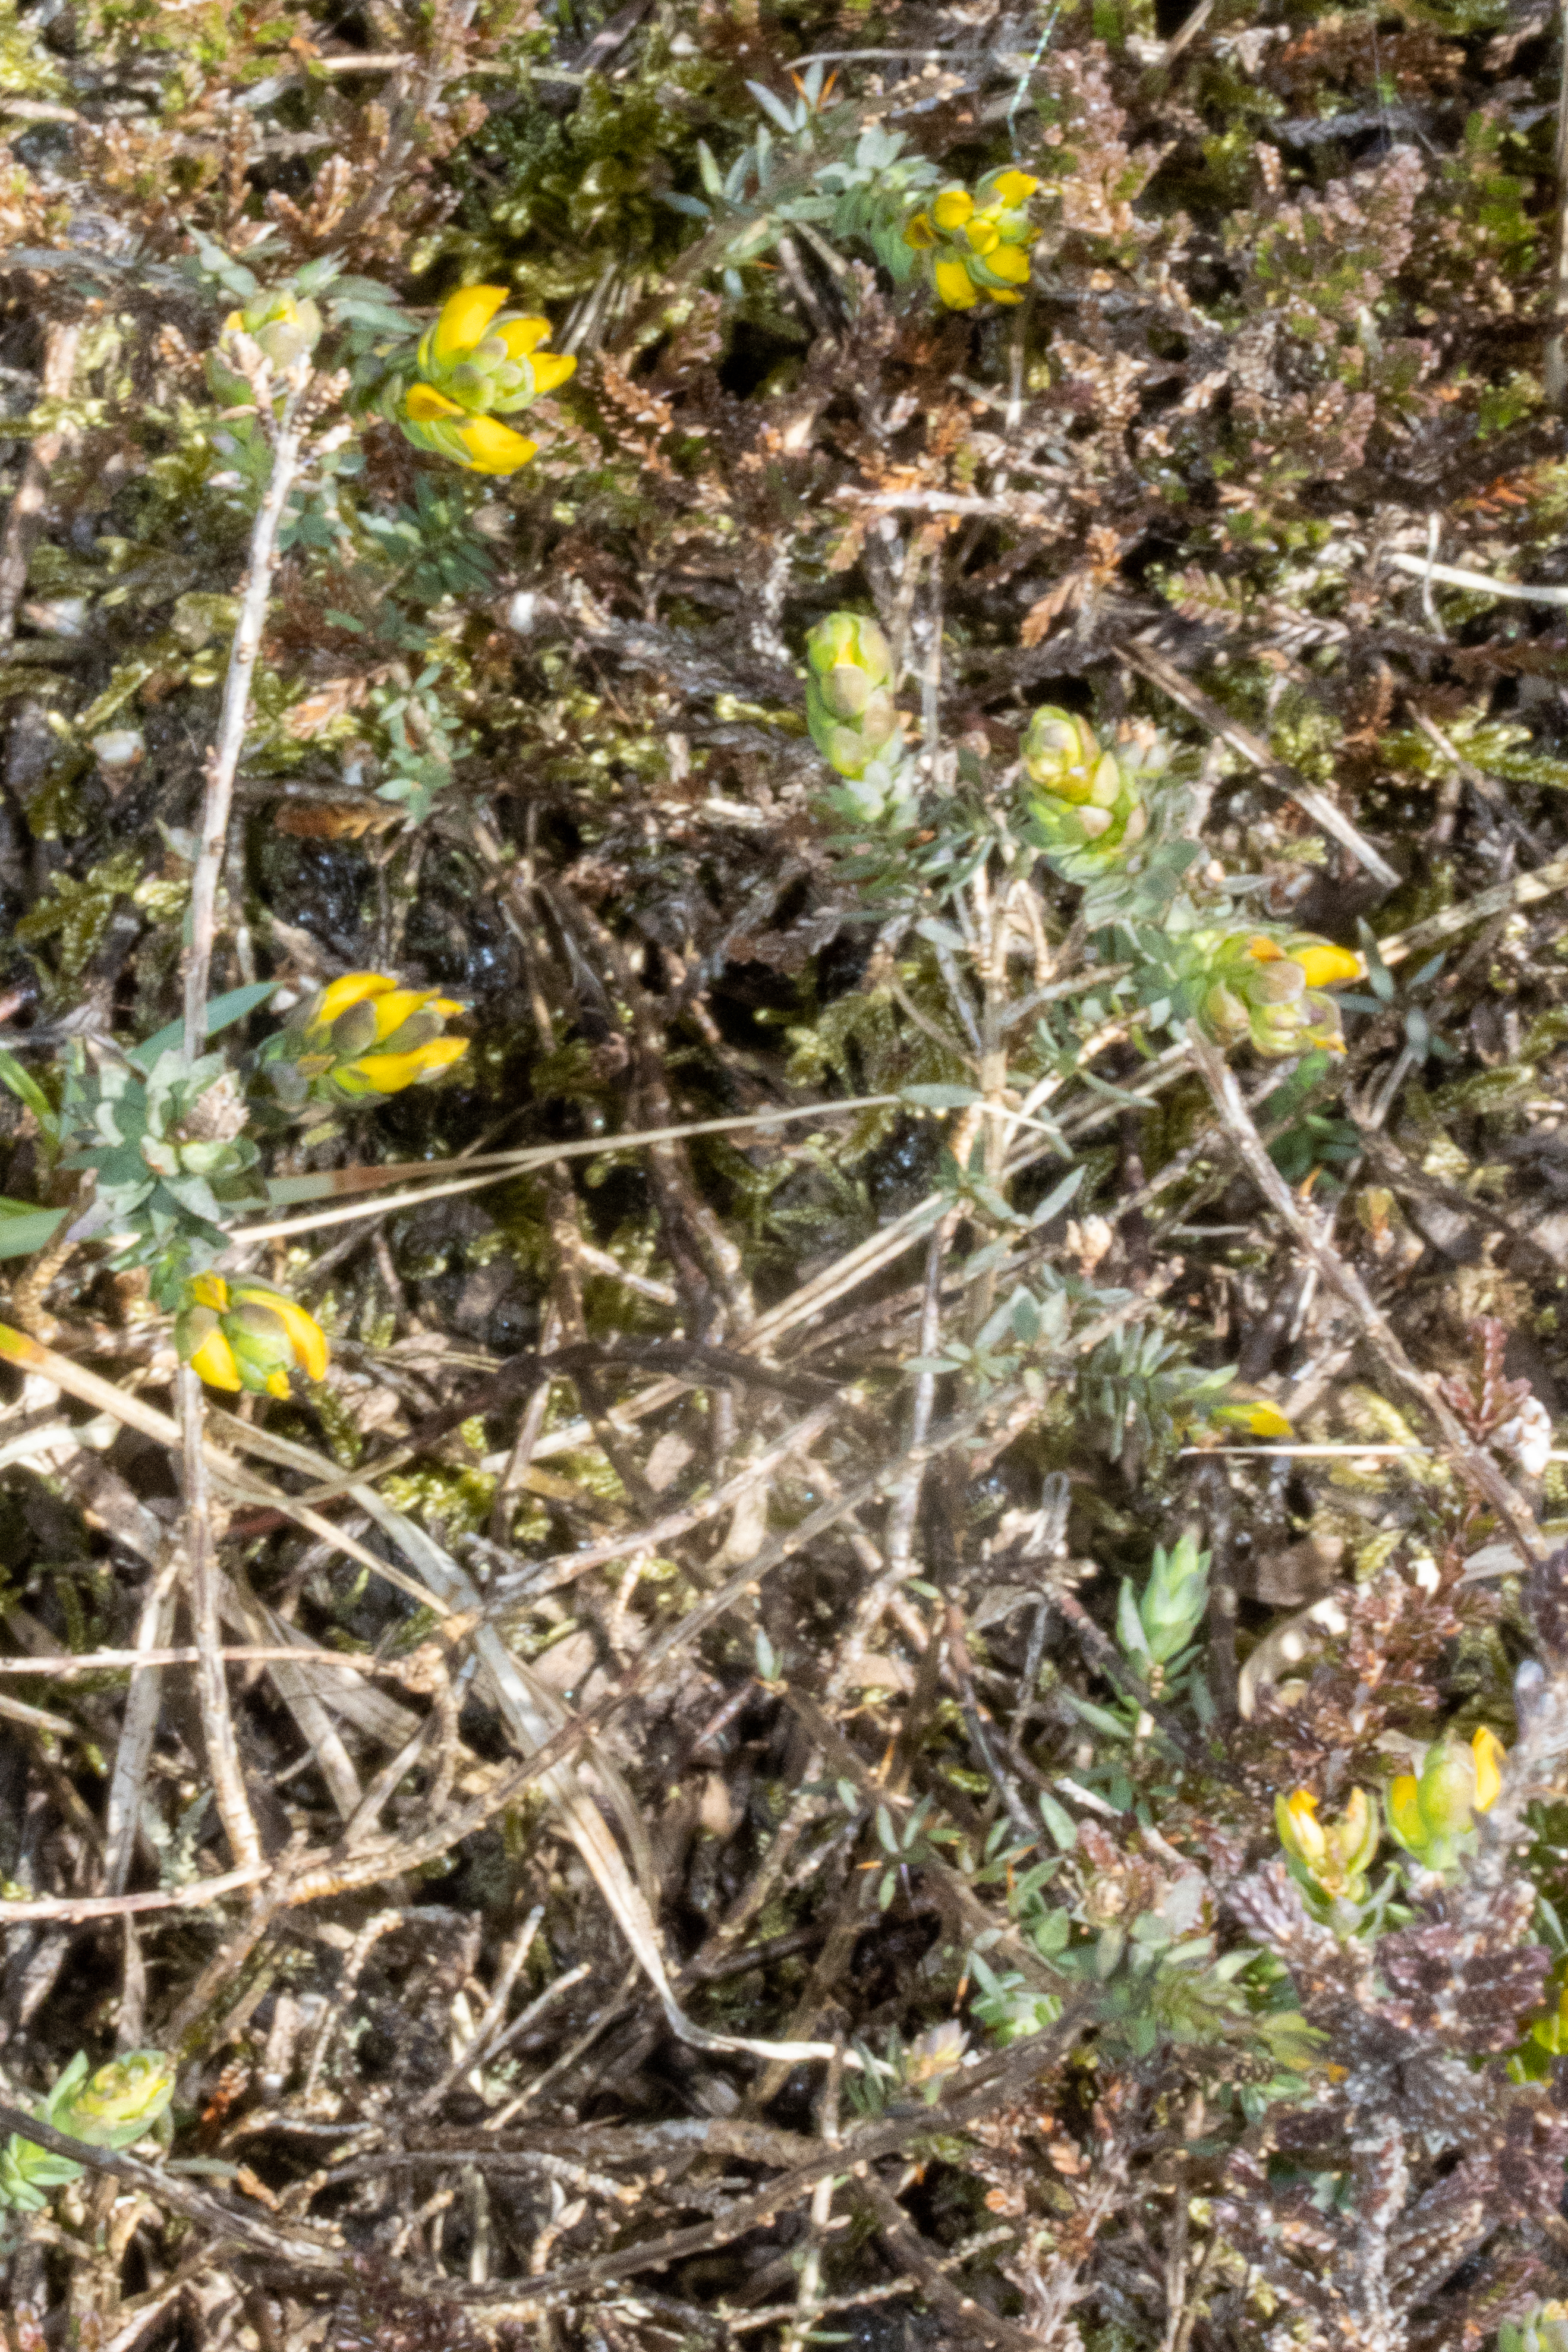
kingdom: Plantae
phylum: Tracheophyta
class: Magnoliopsida
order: Fabales
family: Fabaceae
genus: Genista
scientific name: Genista anglica
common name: Engelsk visse
